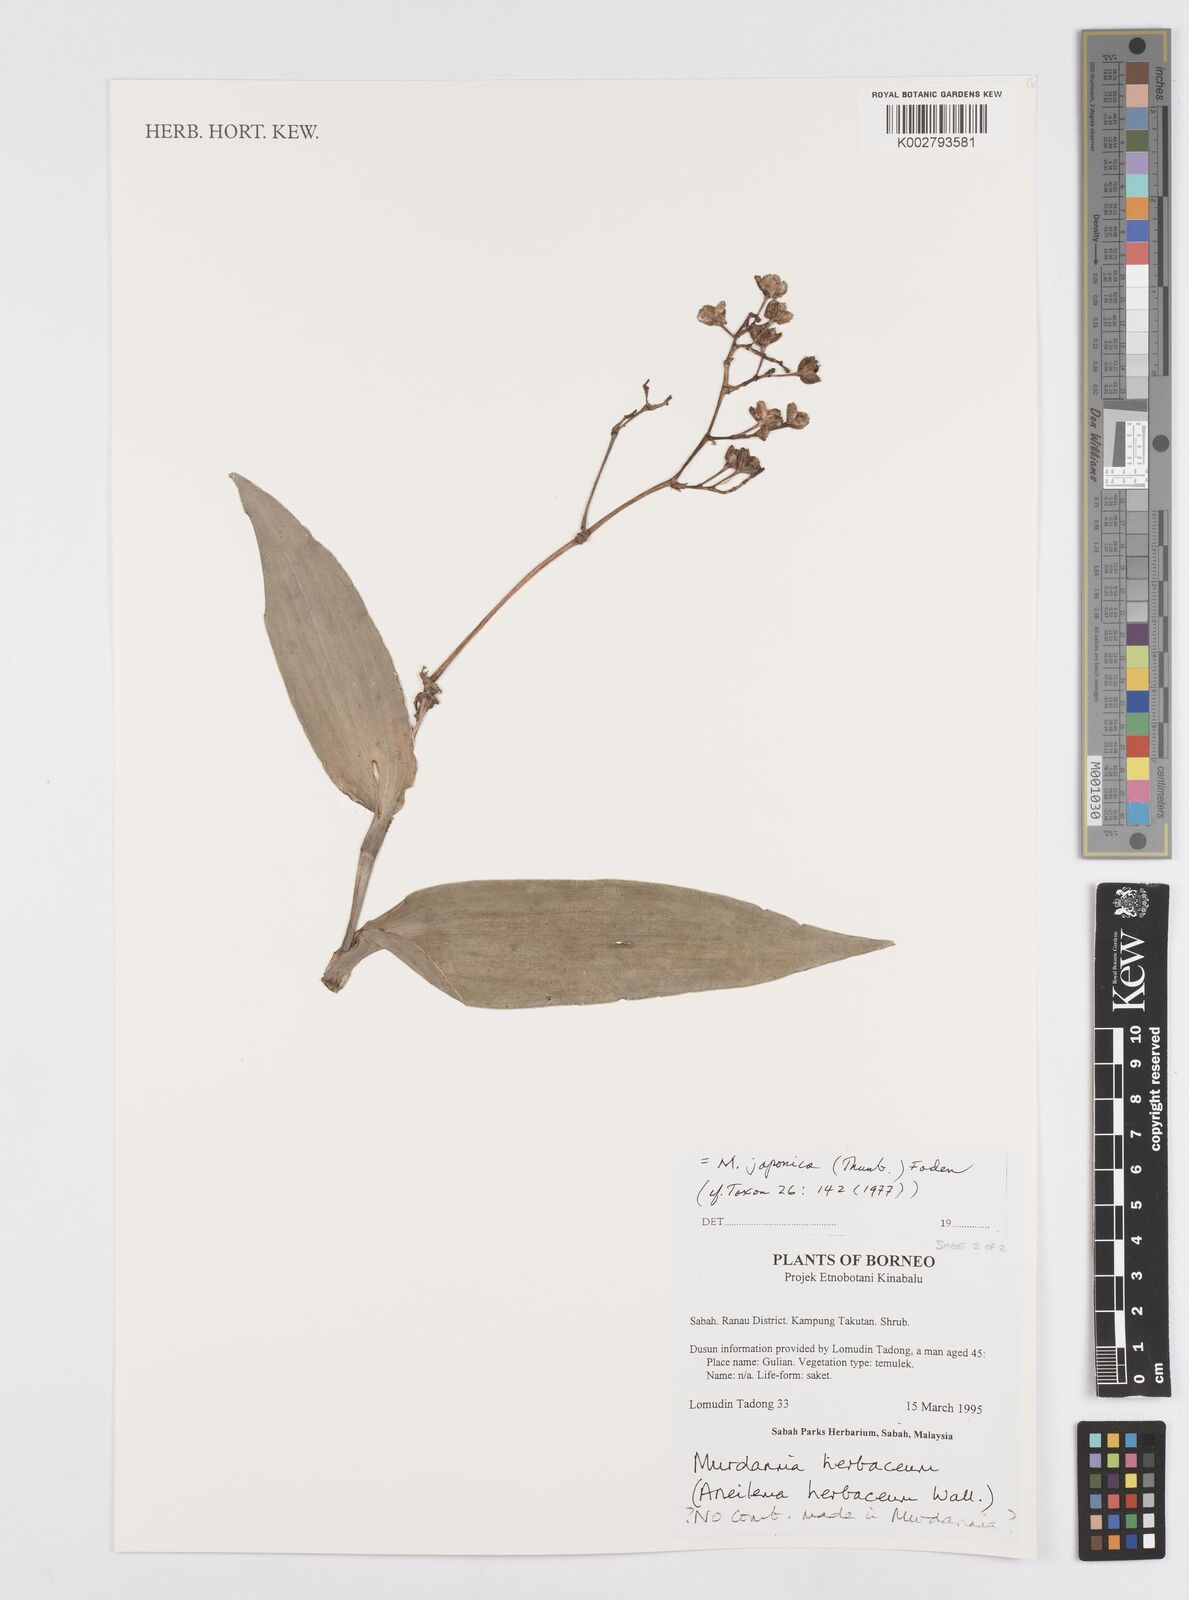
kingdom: Plantae
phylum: Tracheophyta
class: Liliopsida
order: Commelinales
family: Commelinaceae
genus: Murdannia
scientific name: Murdannia japonica
